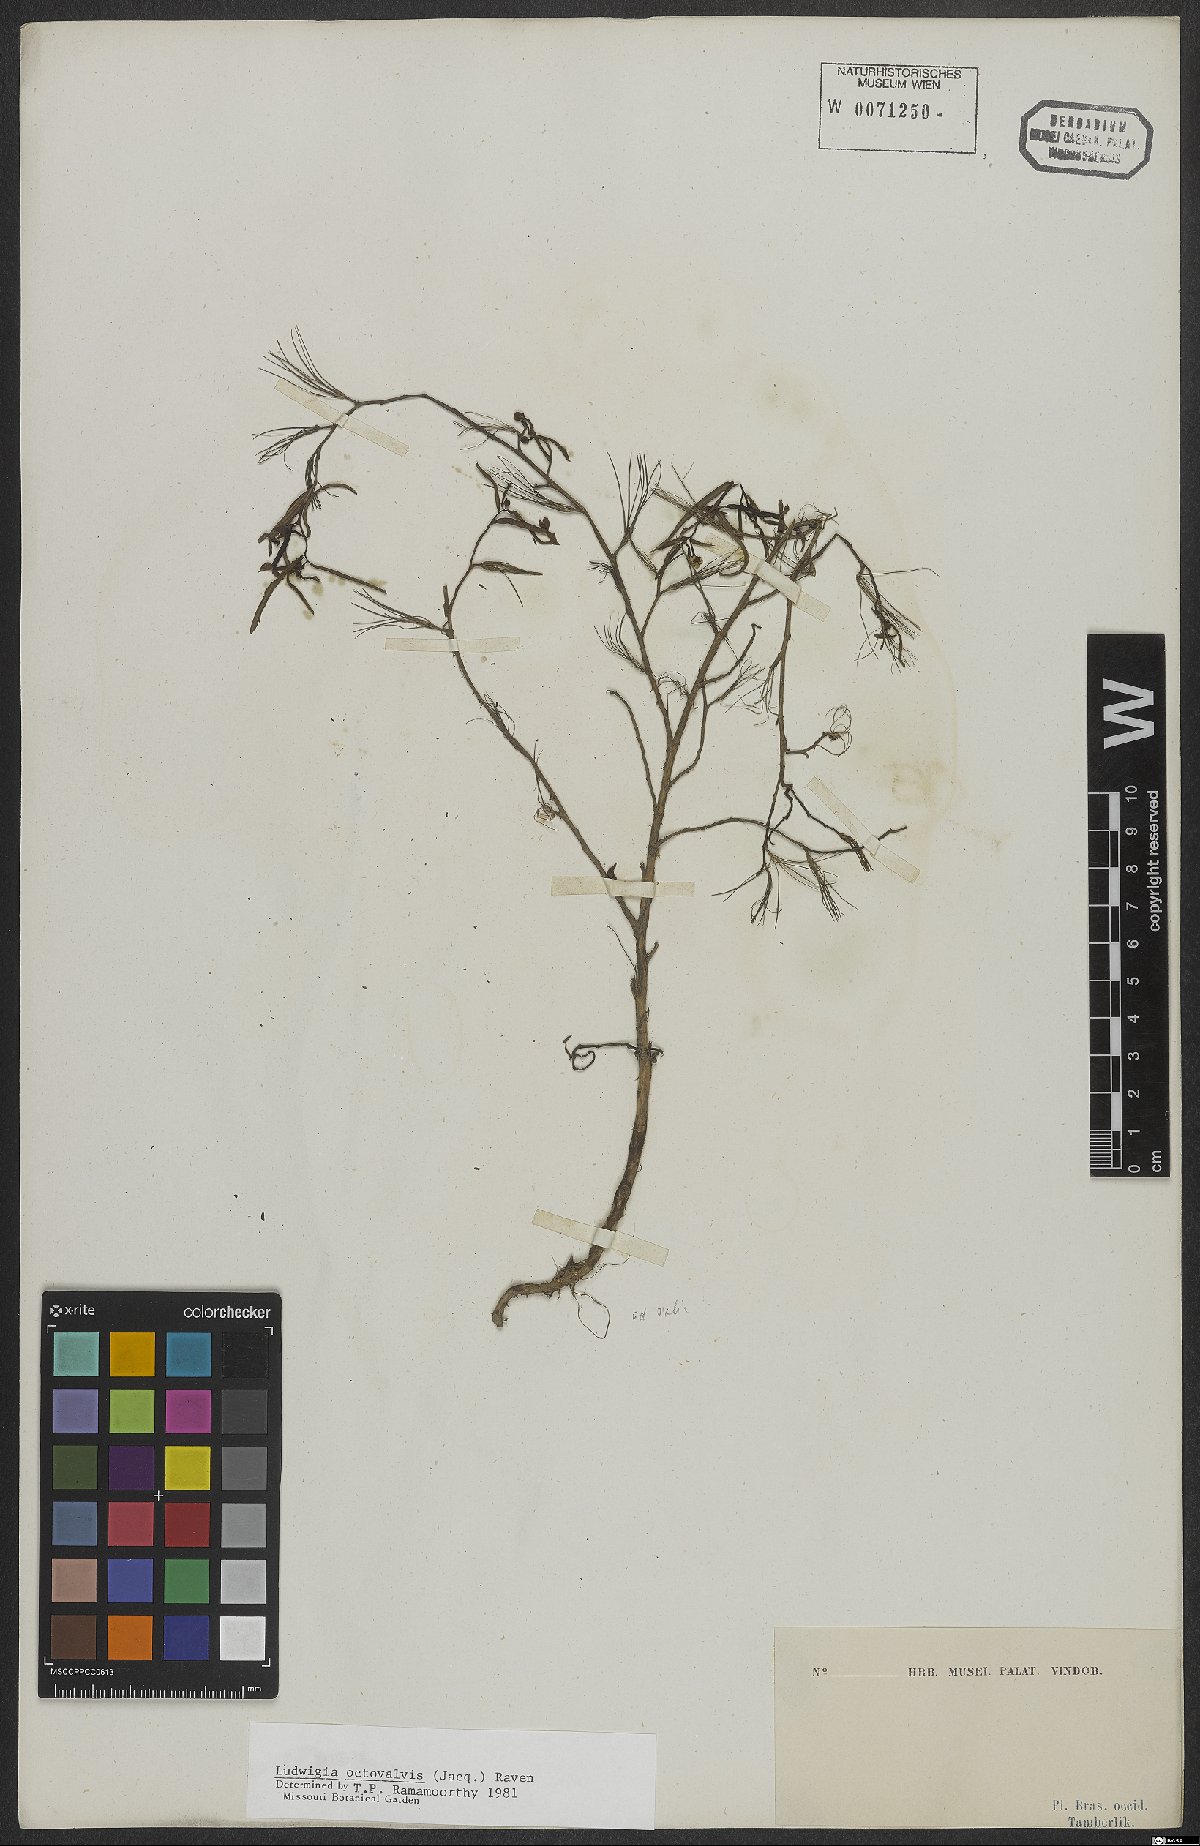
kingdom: Plantae
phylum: Tracheophyta
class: Magnoliopsida
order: Myrtales
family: Onagraceae
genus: Ludwigia
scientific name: Ludwigia octovalvis
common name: Water-primrose
